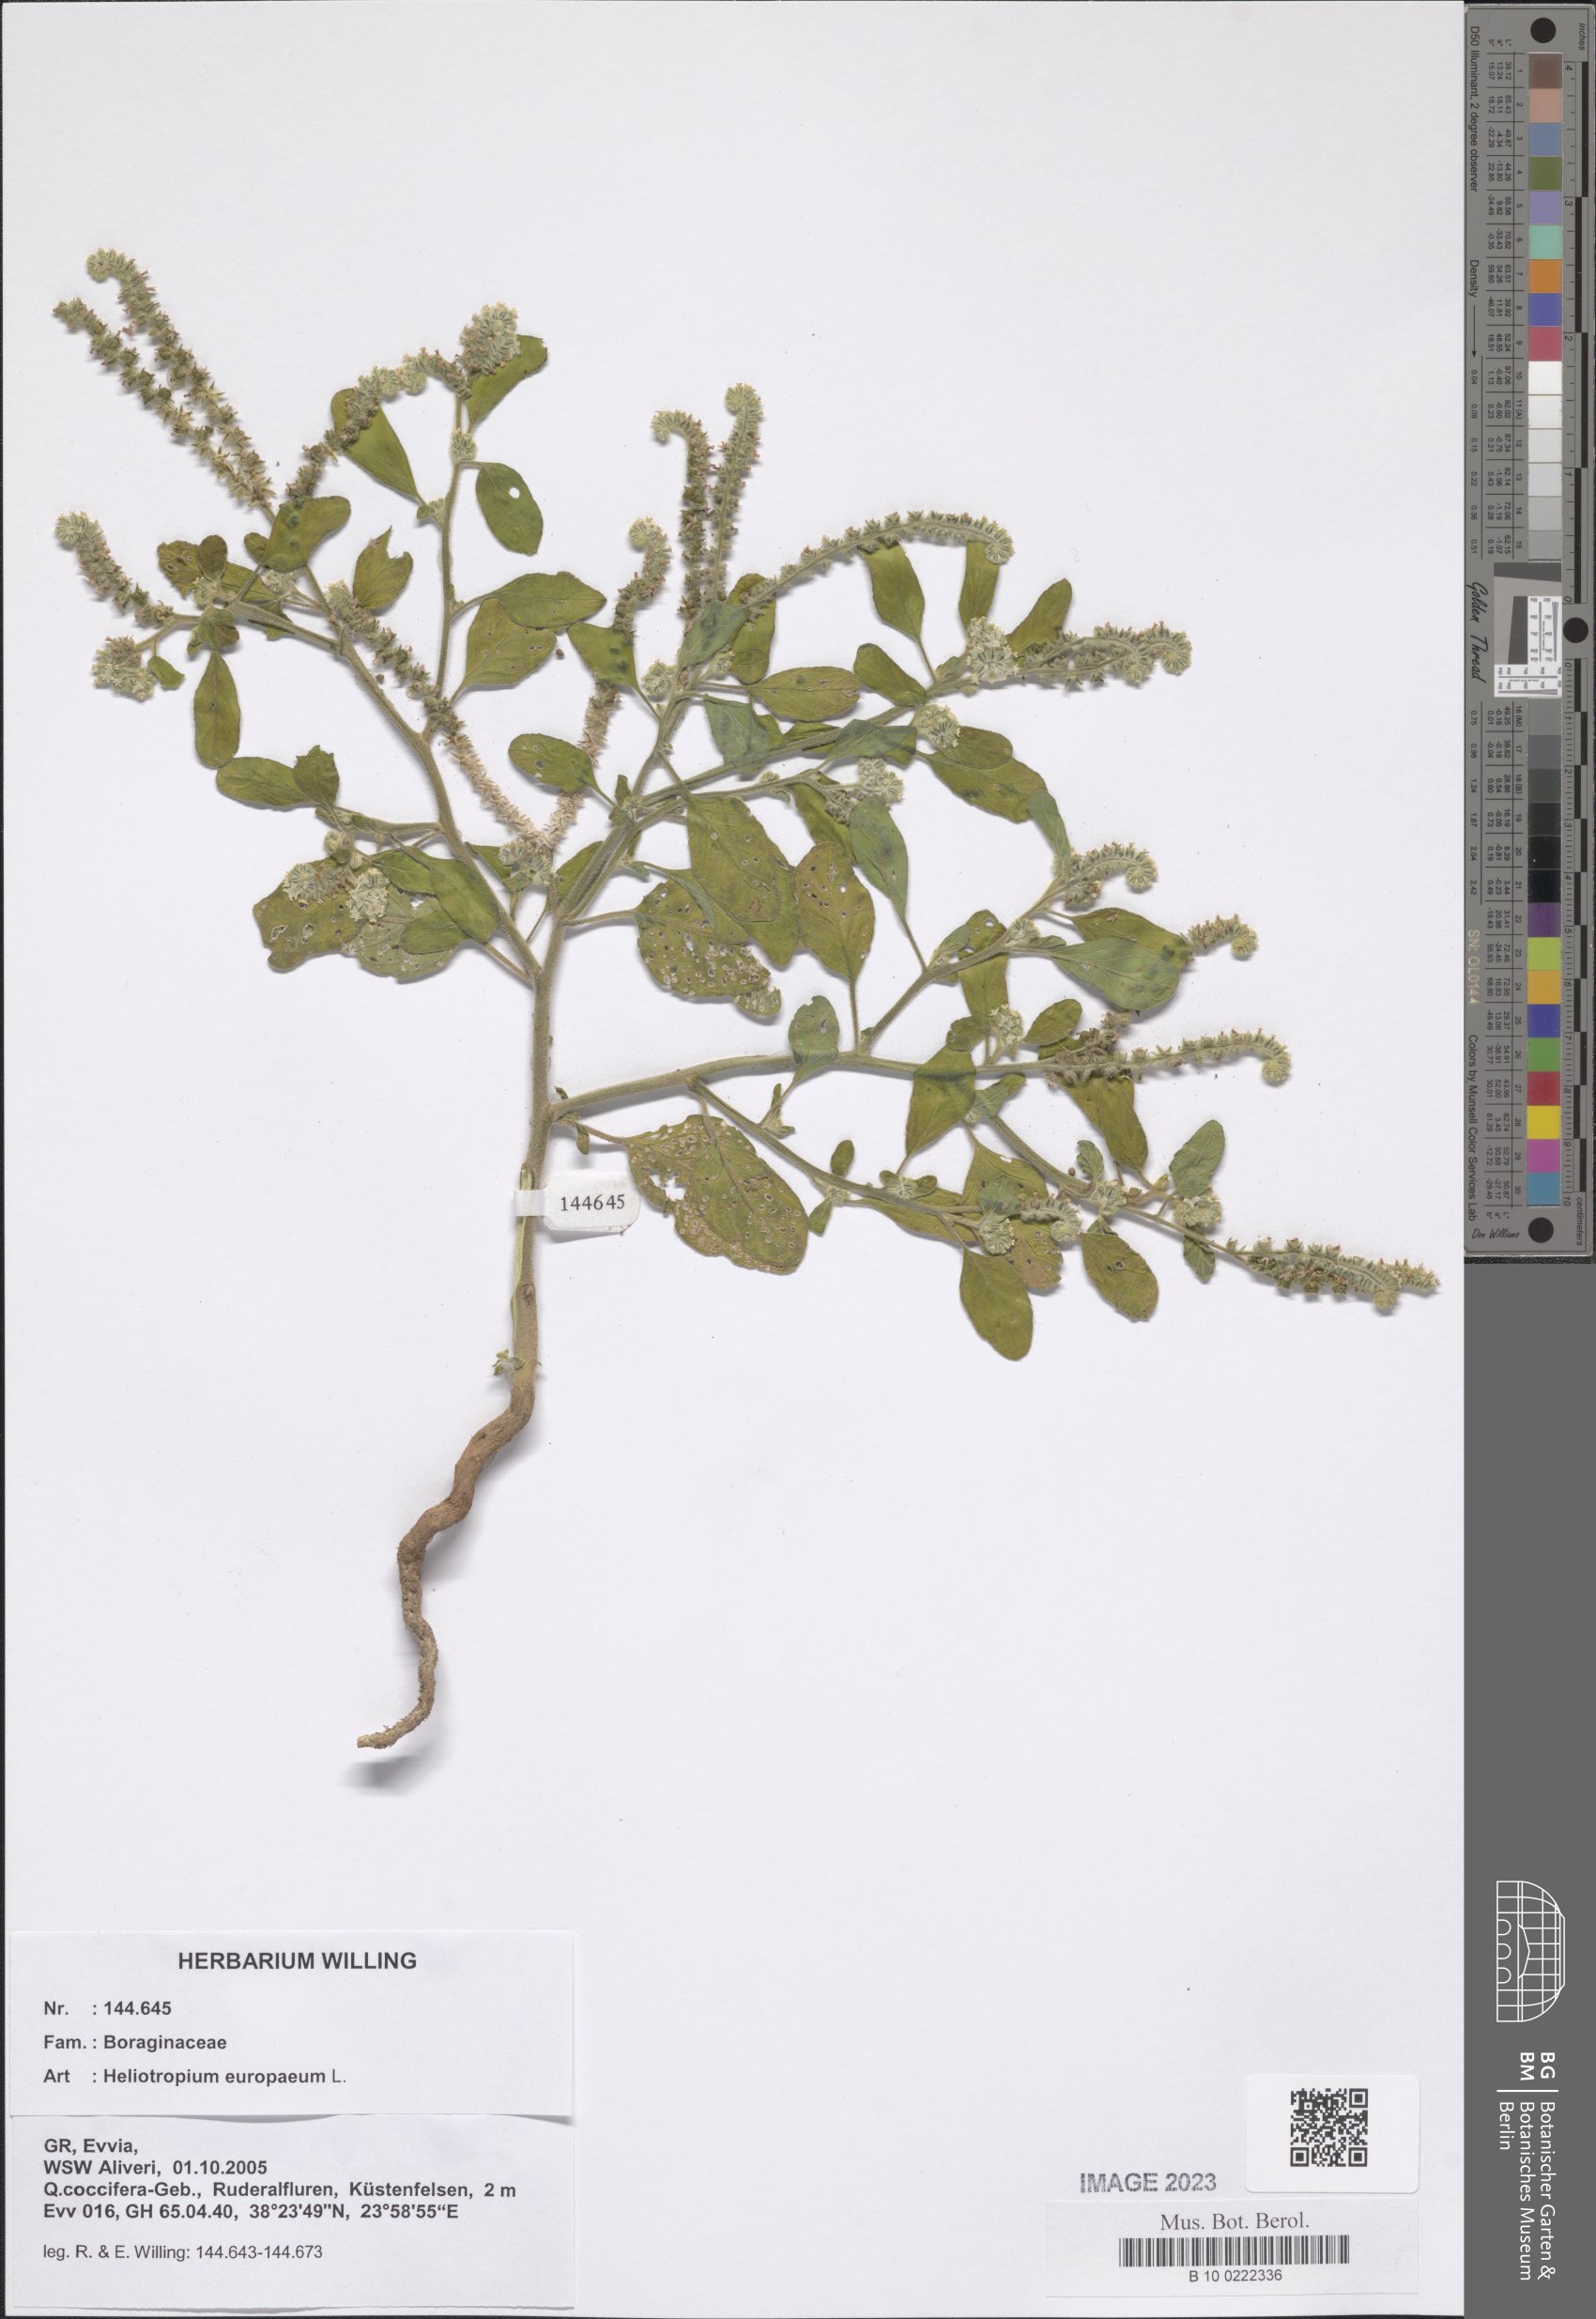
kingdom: Plantae
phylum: Tracheophyta
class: Magnoliopsida
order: Boraginales
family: Heliotropiaceae
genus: Heliotropium
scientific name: Heliotropium europaeum
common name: European heliotrope
